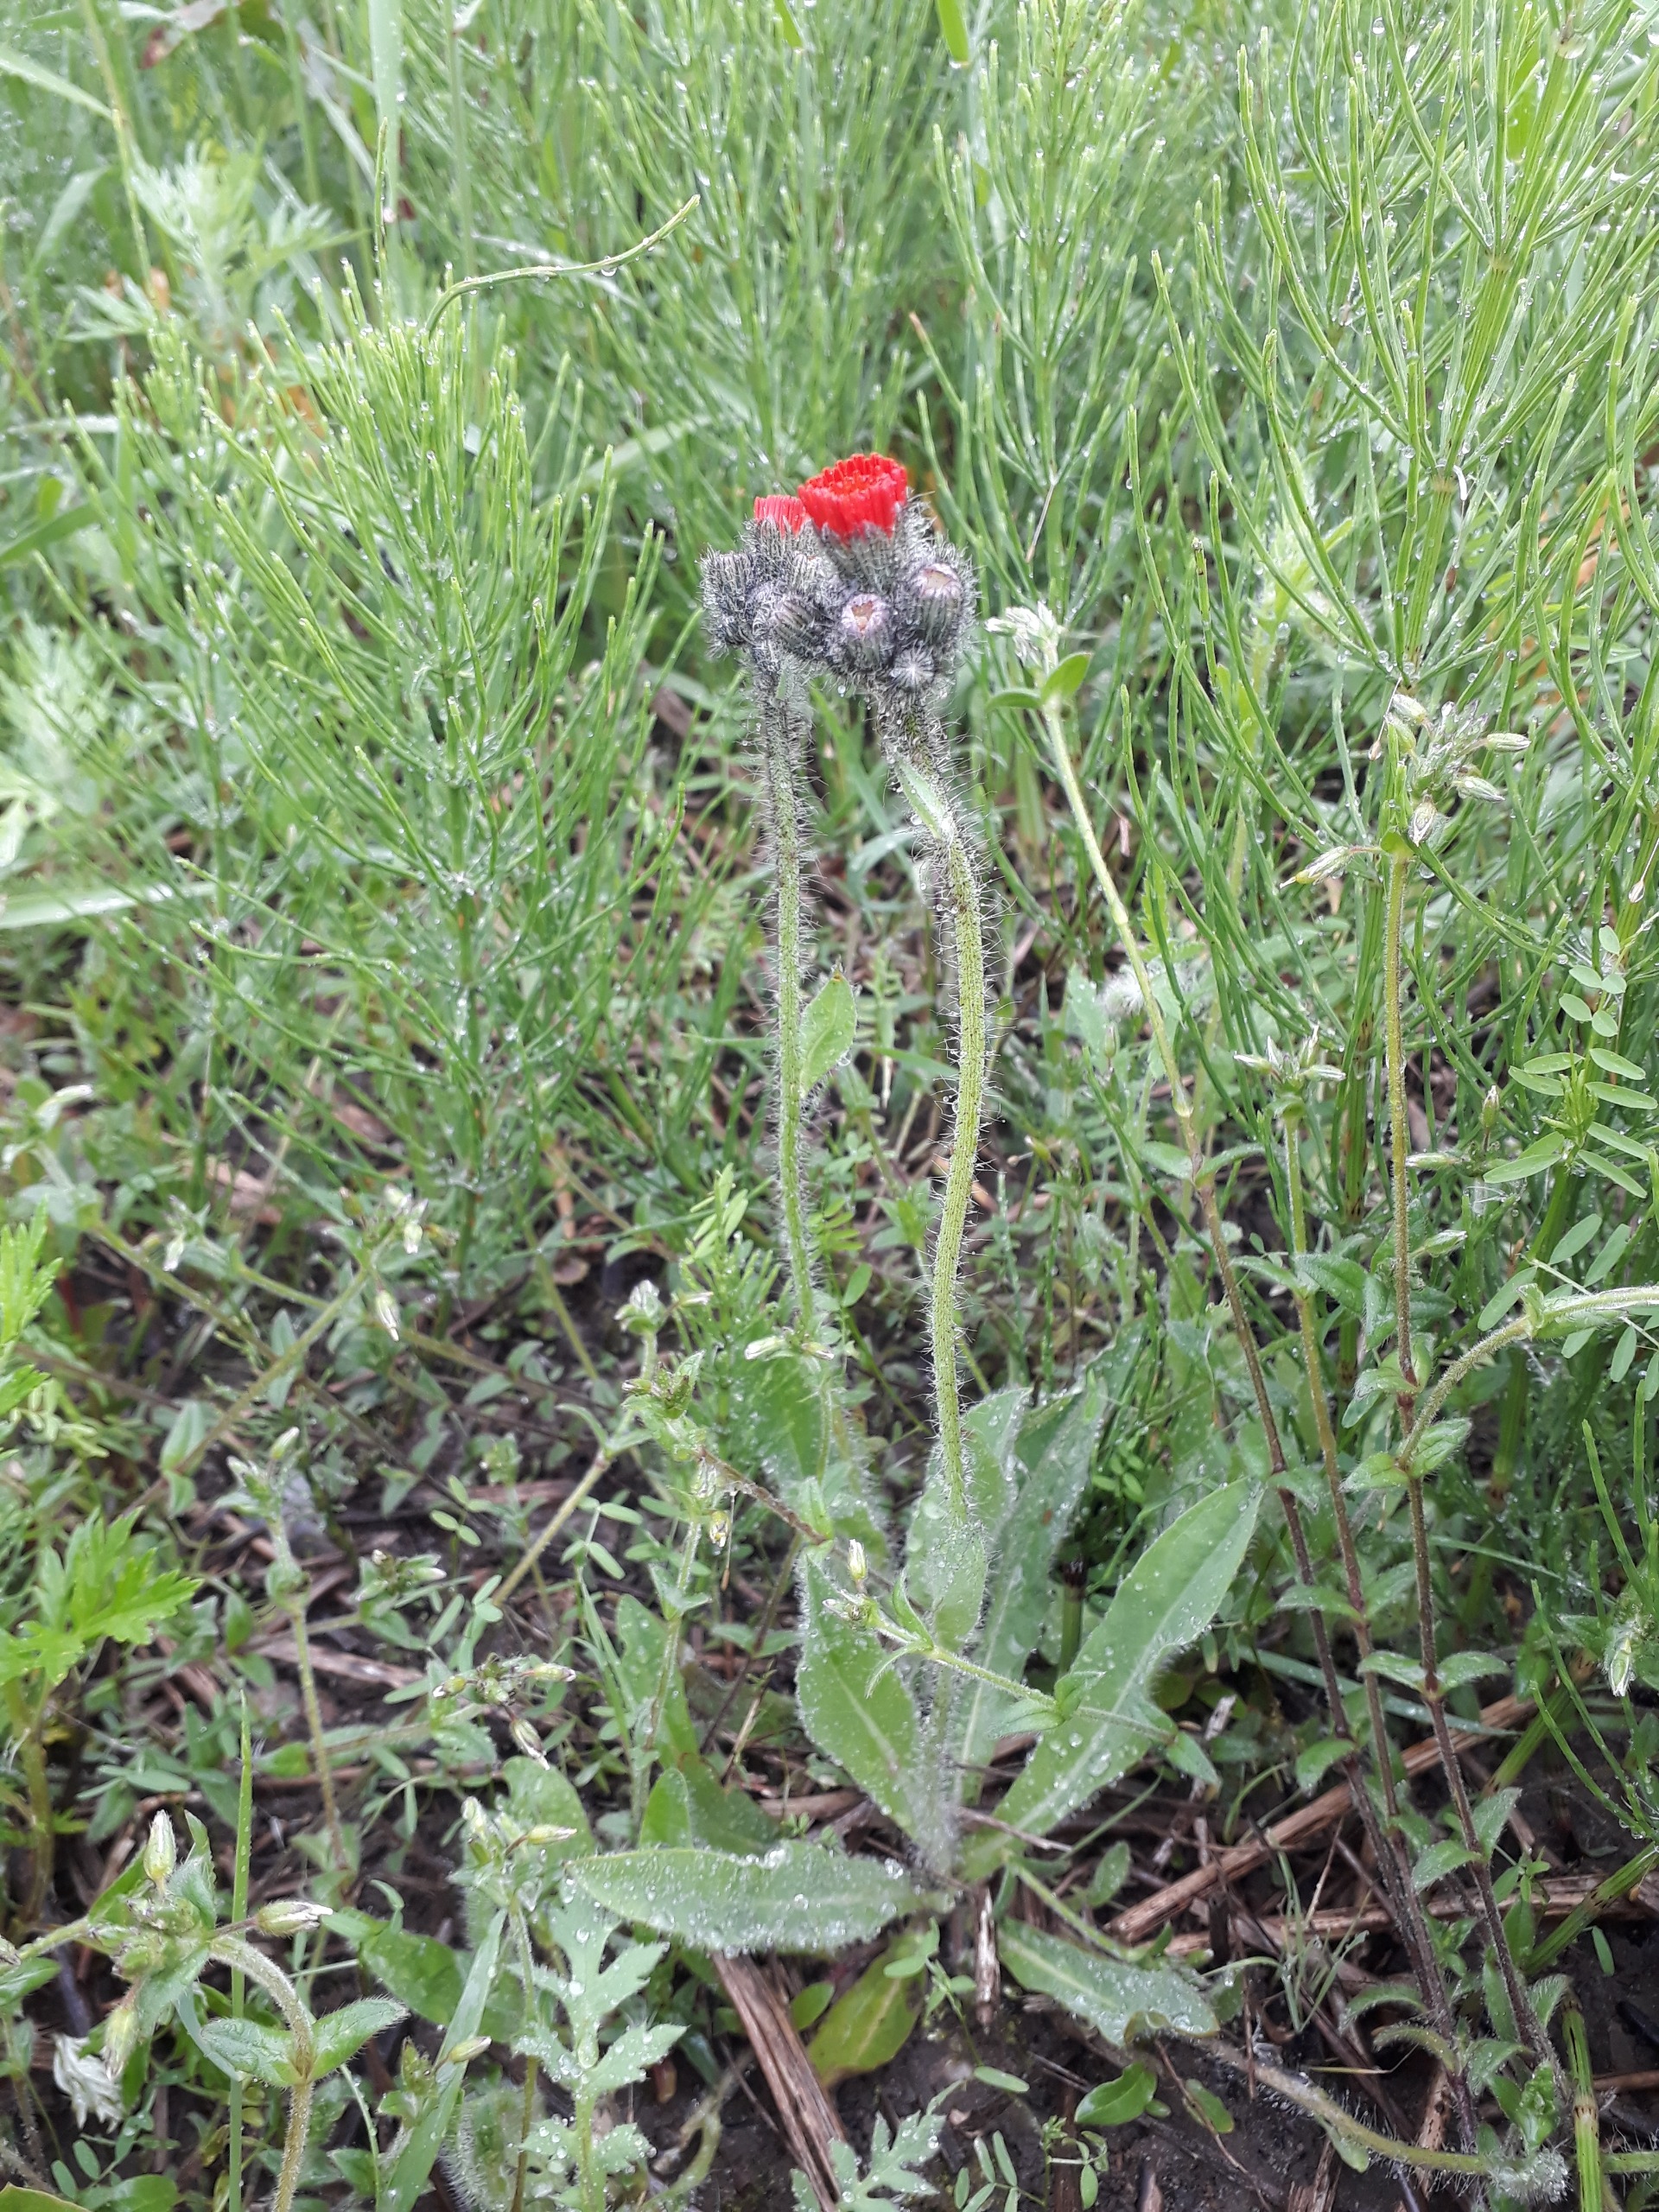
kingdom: Plantae
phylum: Tracheophyta
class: Magnoliopsida
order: Asterales
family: Asteraceae
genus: Pilosella
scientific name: Pilosella aurantiaca
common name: Pomerans-høgeurt
